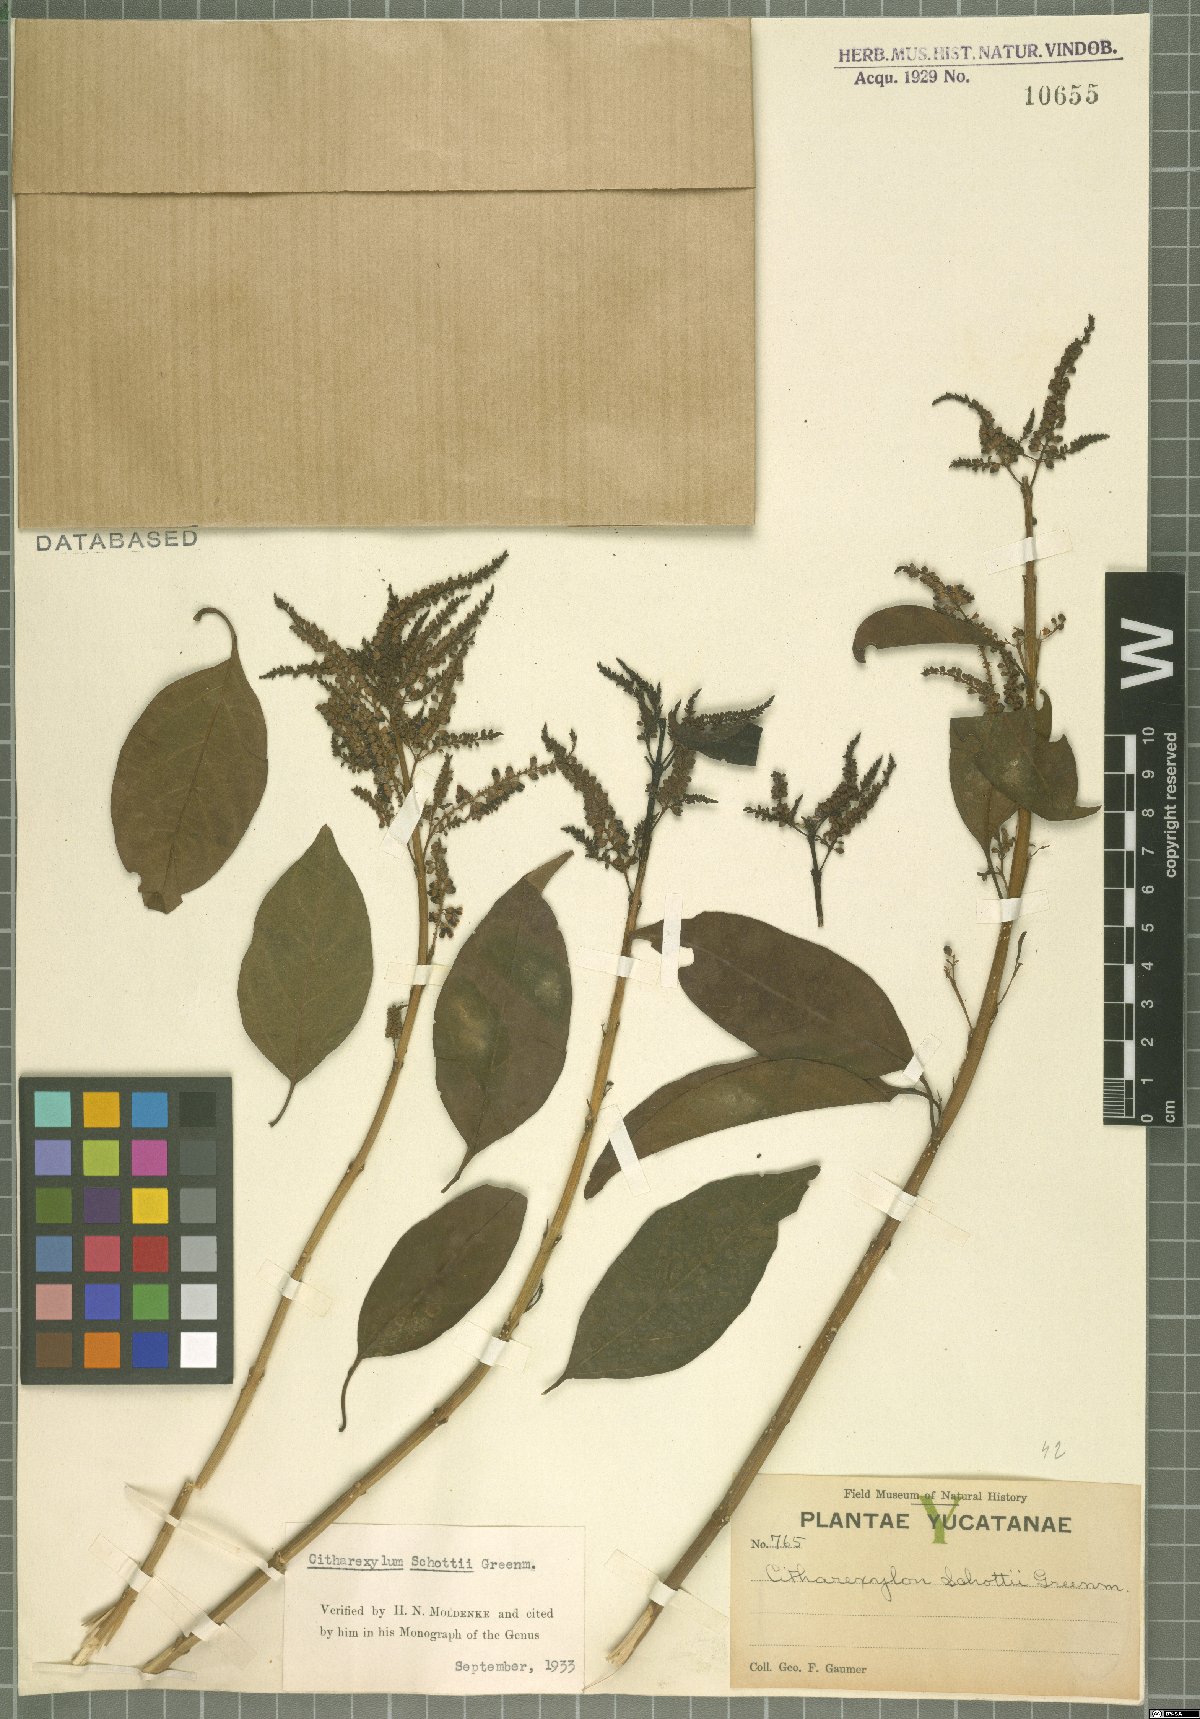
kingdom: Plantae
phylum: Tracheophyta
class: Magnoliopsida
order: Lamiales
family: Verbenaceae
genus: Citharexylum
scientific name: Citharexylum schottii
